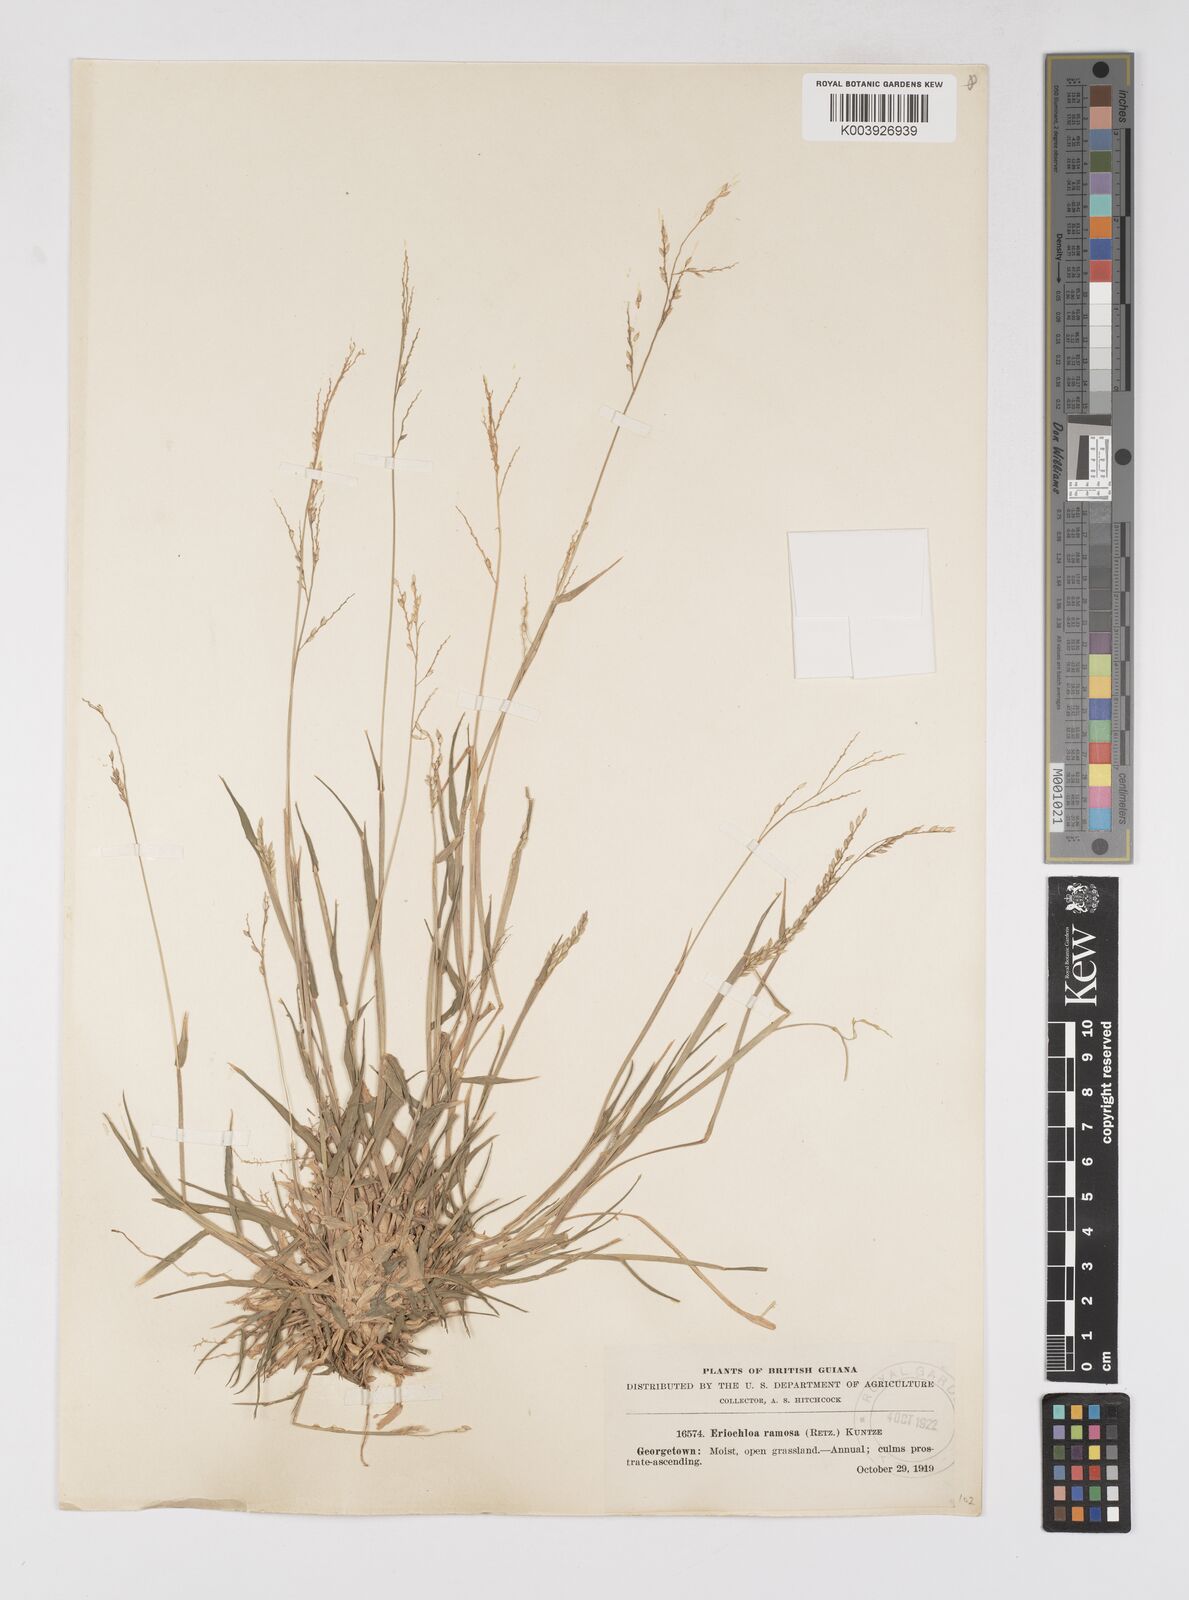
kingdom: Plantae
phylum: Tracheophyta
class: Liliopsida
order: Poales
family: Poaceae
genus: Eriochloa
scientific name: Eriochloa procera
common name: Spring grass
